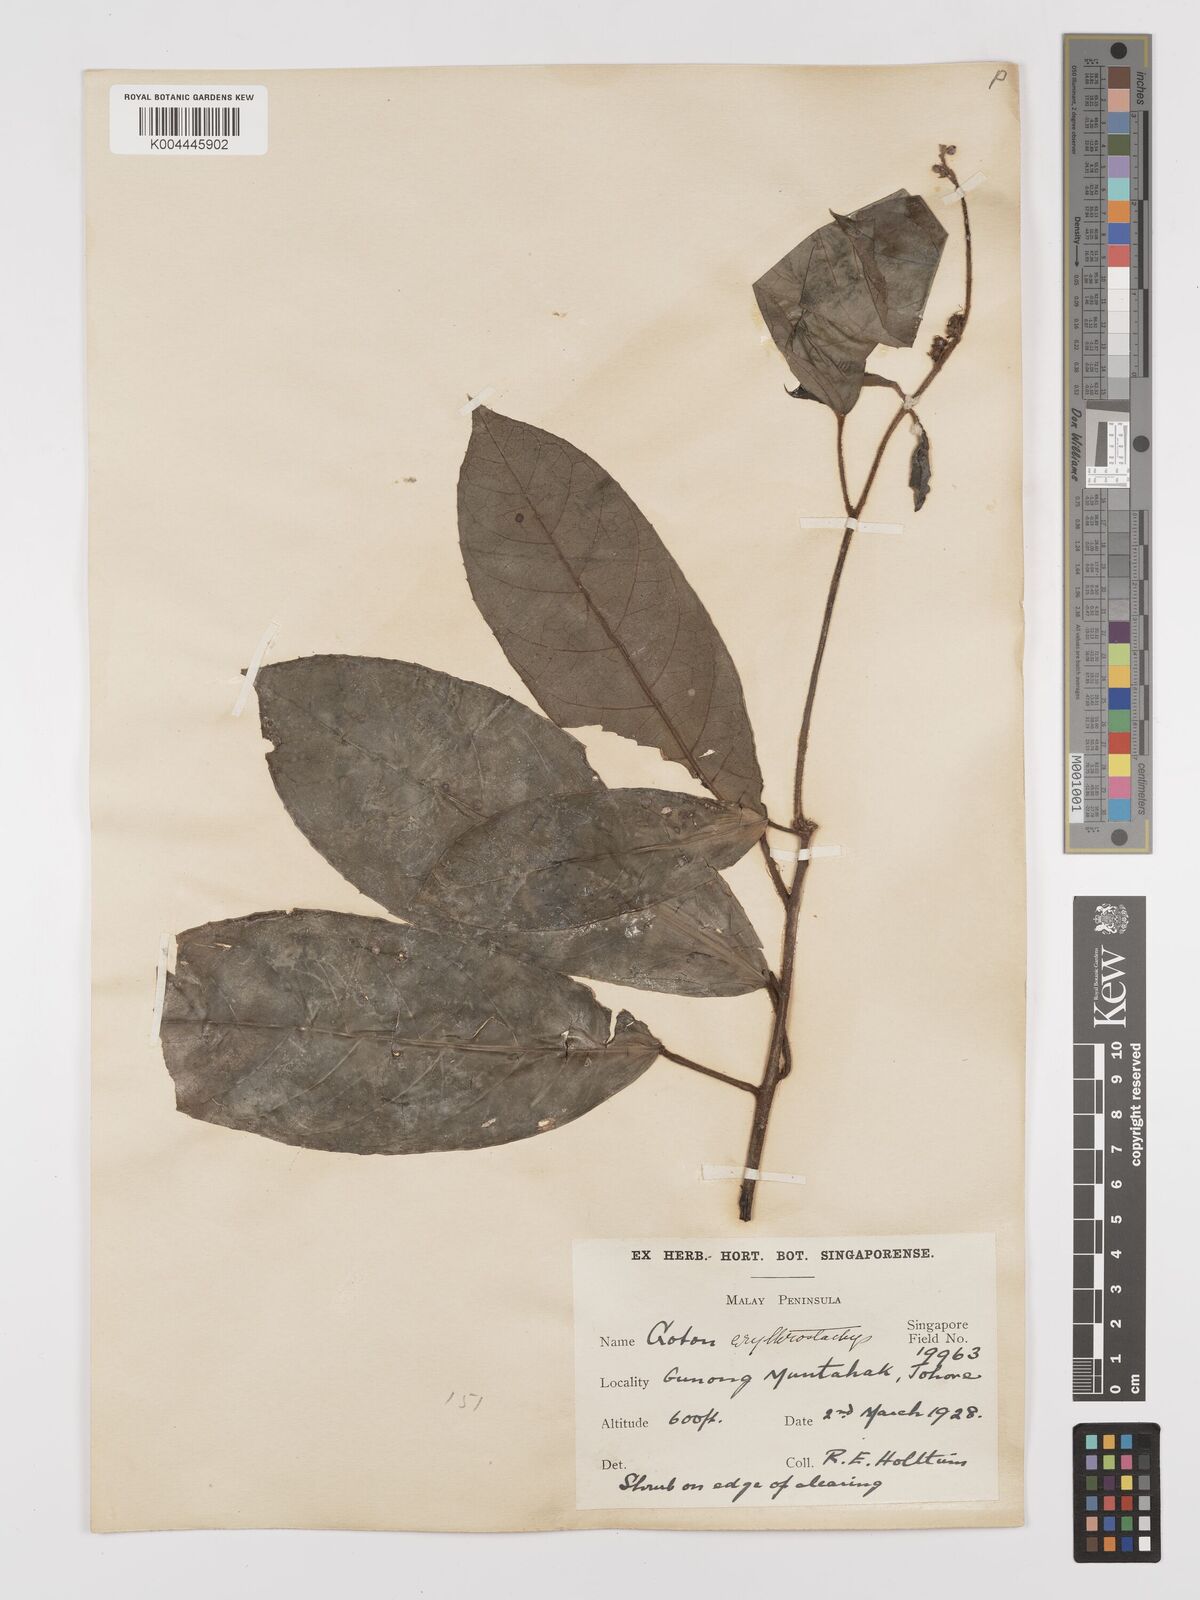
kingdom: Plantae
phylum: Tracheophyta
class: Magnoliopsida
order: Malpighiales
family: Euphorbiaceae
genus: Croton
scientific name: Croton erythrostachys
